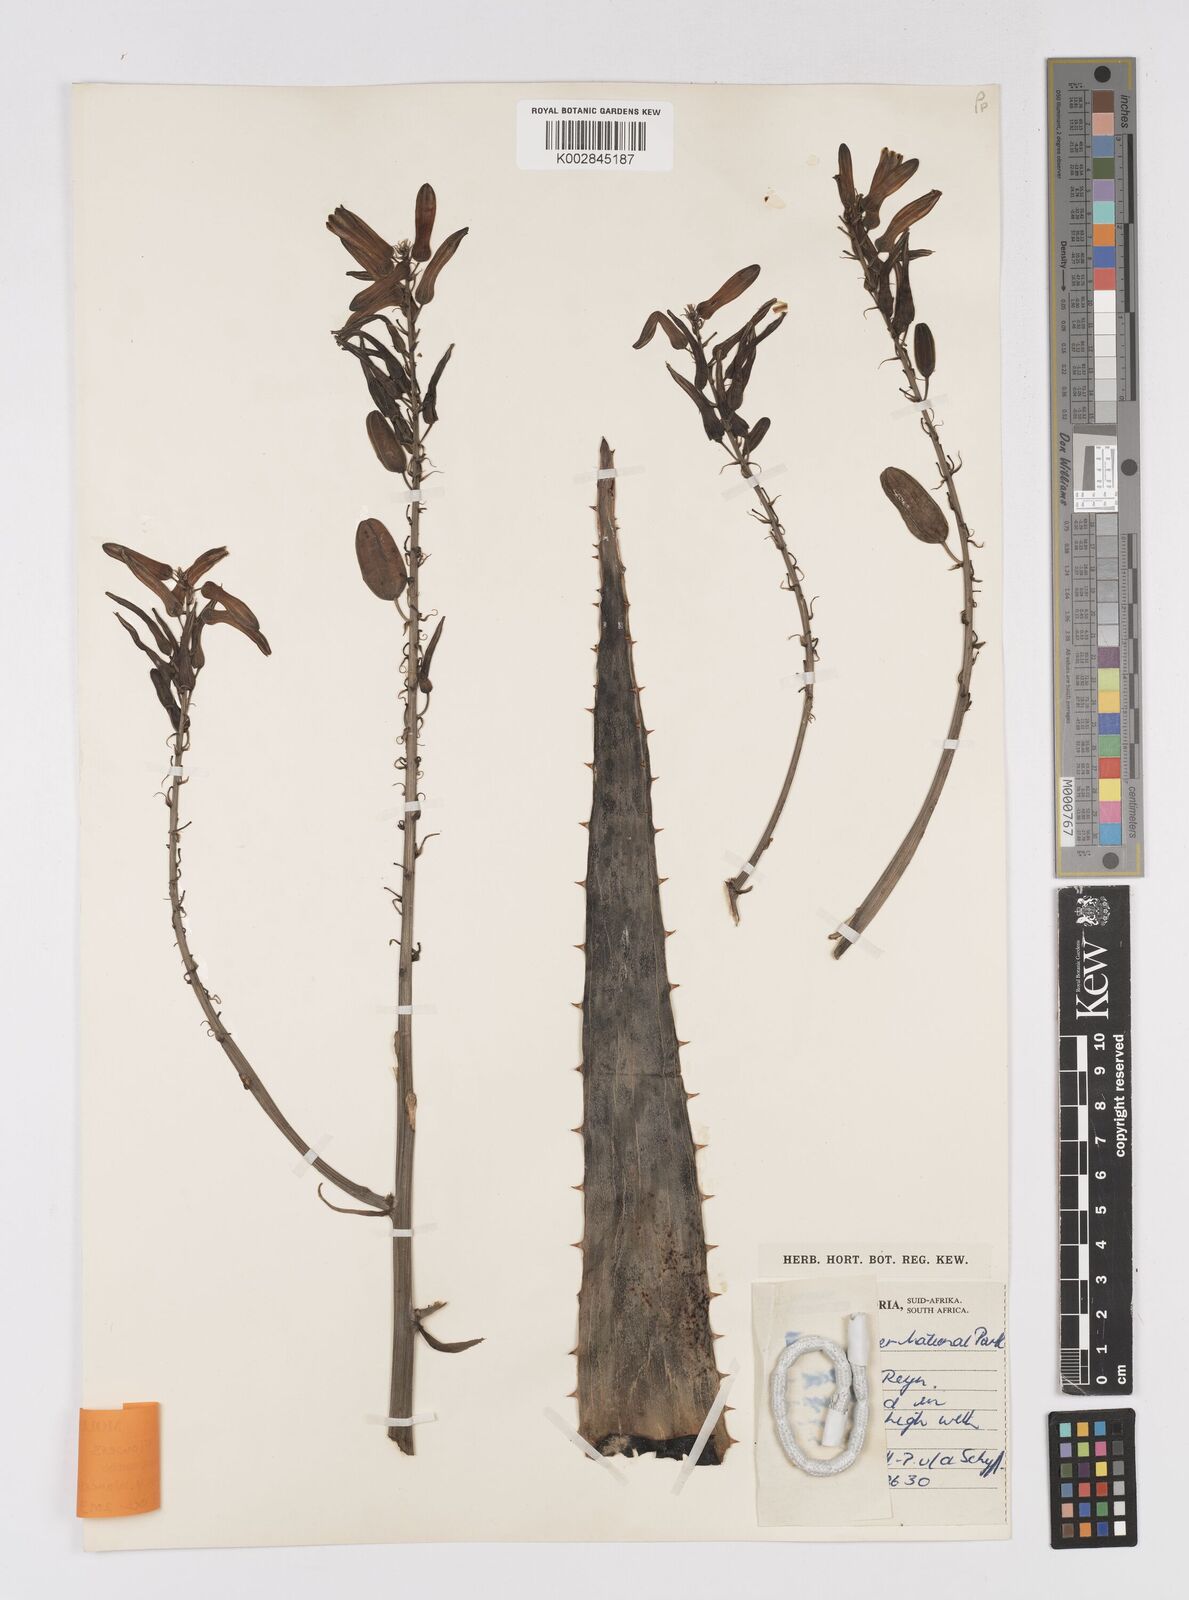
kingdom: Plantae
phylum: Tracheophyta
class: Liliopsida
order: Asparagales
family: Asphodelaceae
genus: Aloe
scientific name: Aloe vandermerwei
